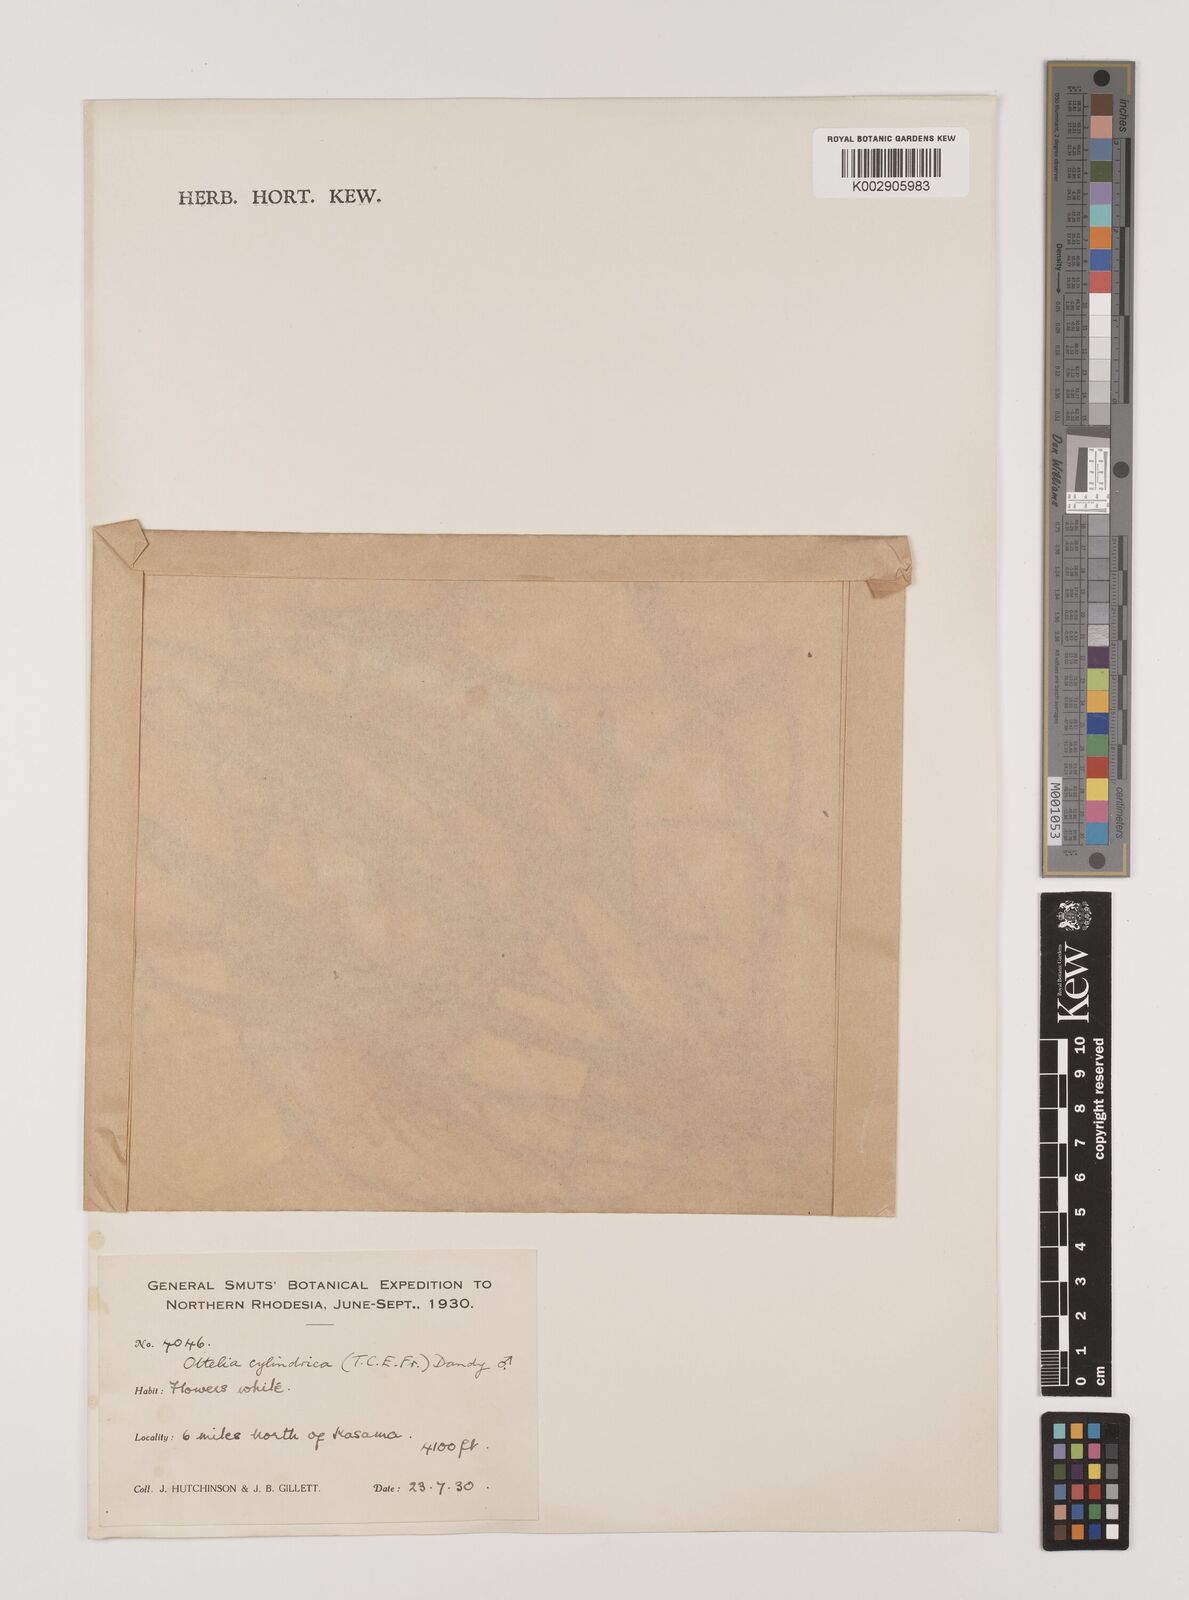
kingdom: Plantae
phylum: Tracheophyta
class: Liliopsida
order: Alismatales
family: Hydrocharitaceae
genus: Ottelia
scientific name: Ottelia cylindrica
